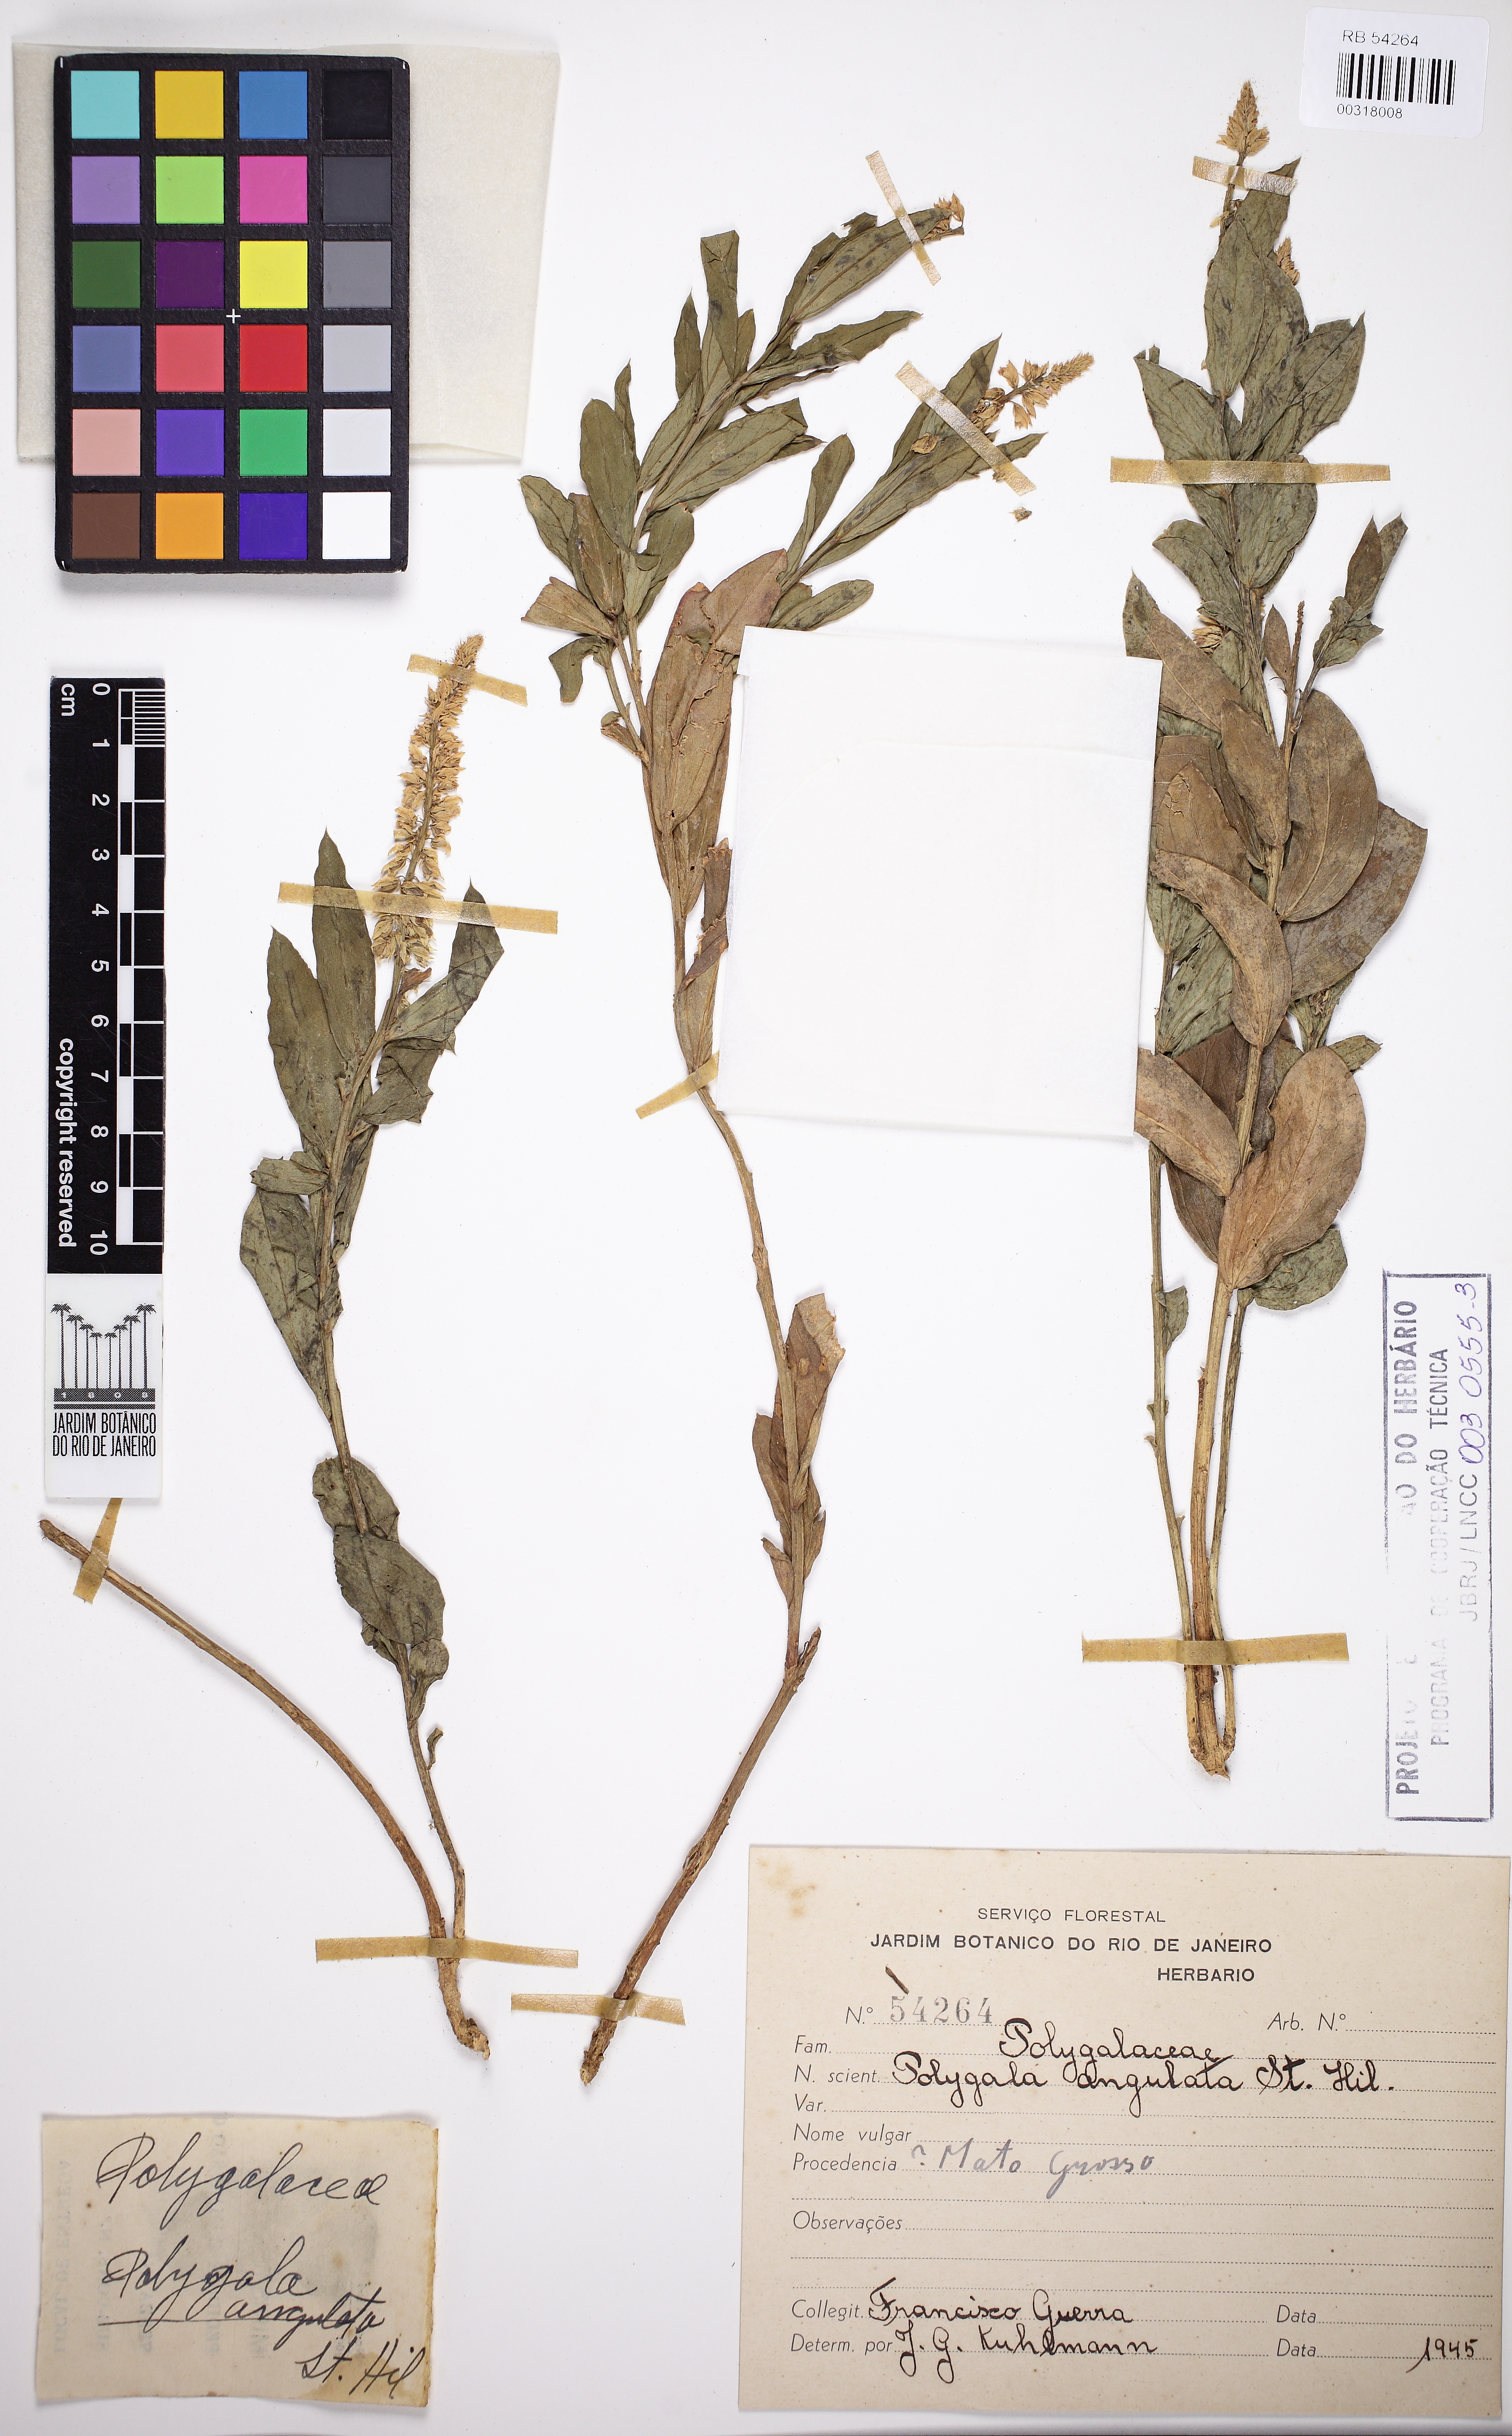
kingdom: Plantae
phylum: Tracheophyta
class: Magnoliopsida
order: Fabales
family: Polygalaceae
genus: Polygala
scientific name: Polygala poaya
